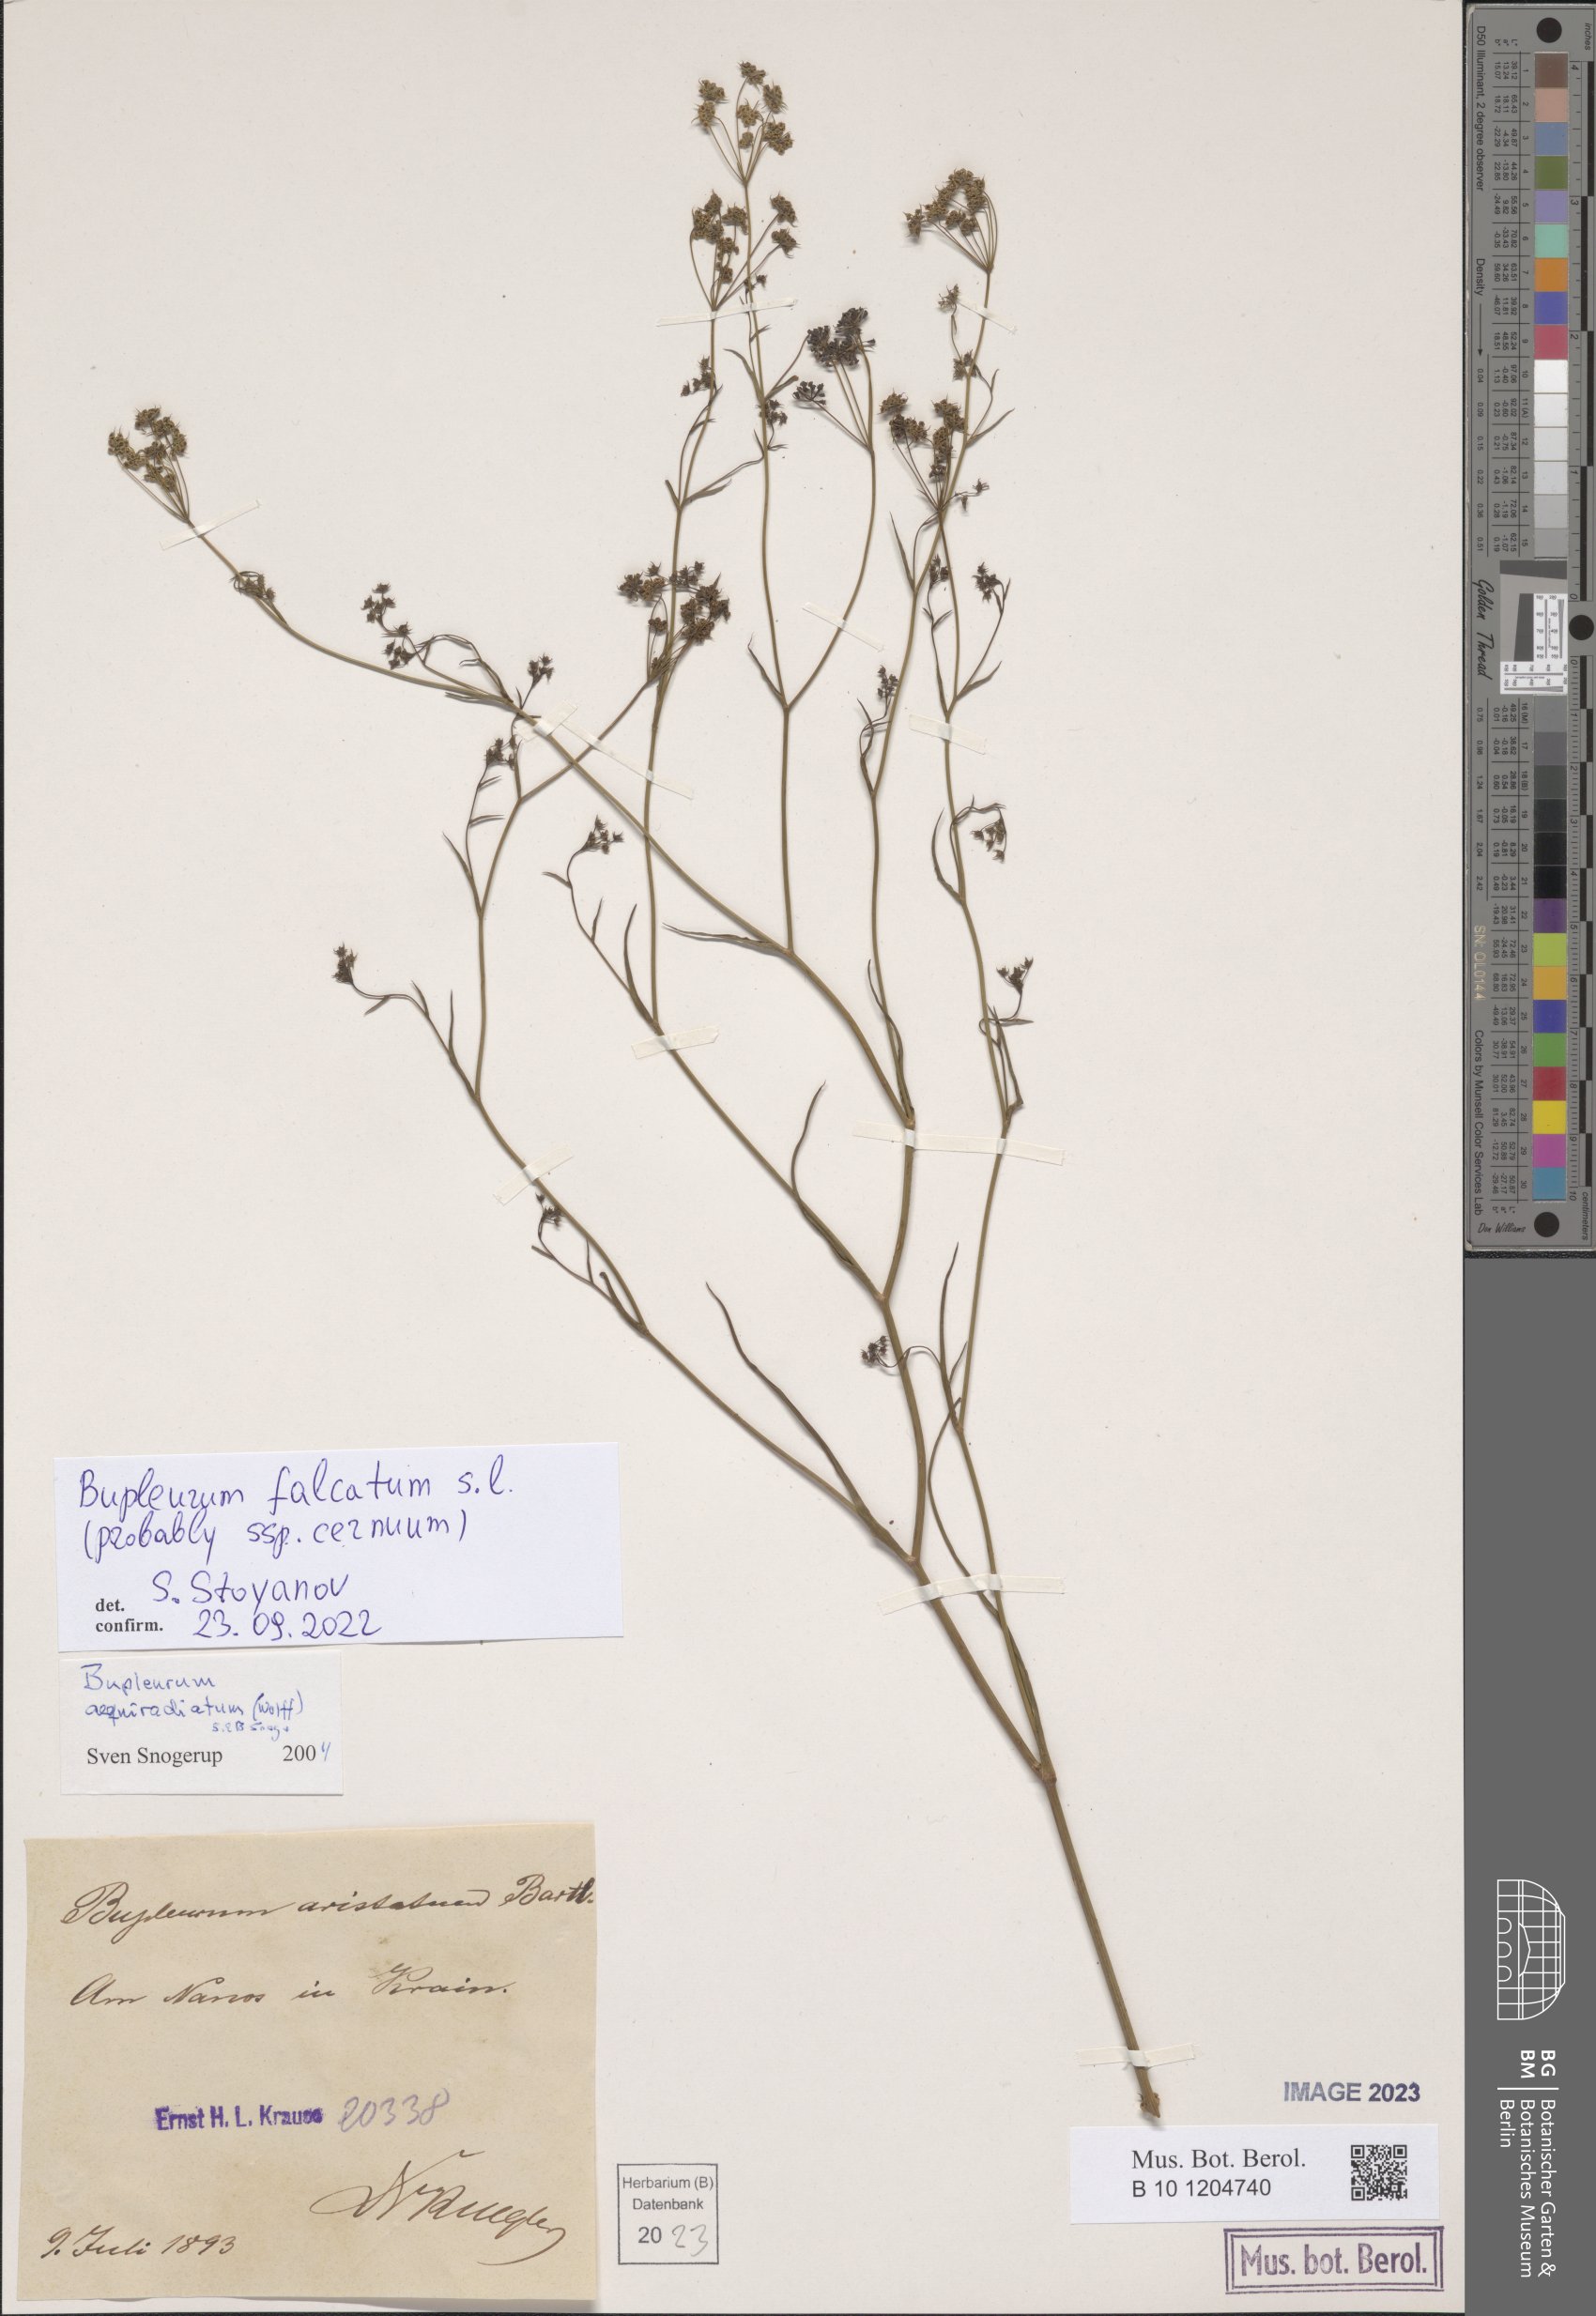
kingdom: Plantae
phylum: Tracheophyta
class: Magnoliopsida
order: Apiales
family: Apiaceae
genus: Bupleurum
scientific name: Bupleurum falcatum
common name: Sickle-leaved hare's-ear
